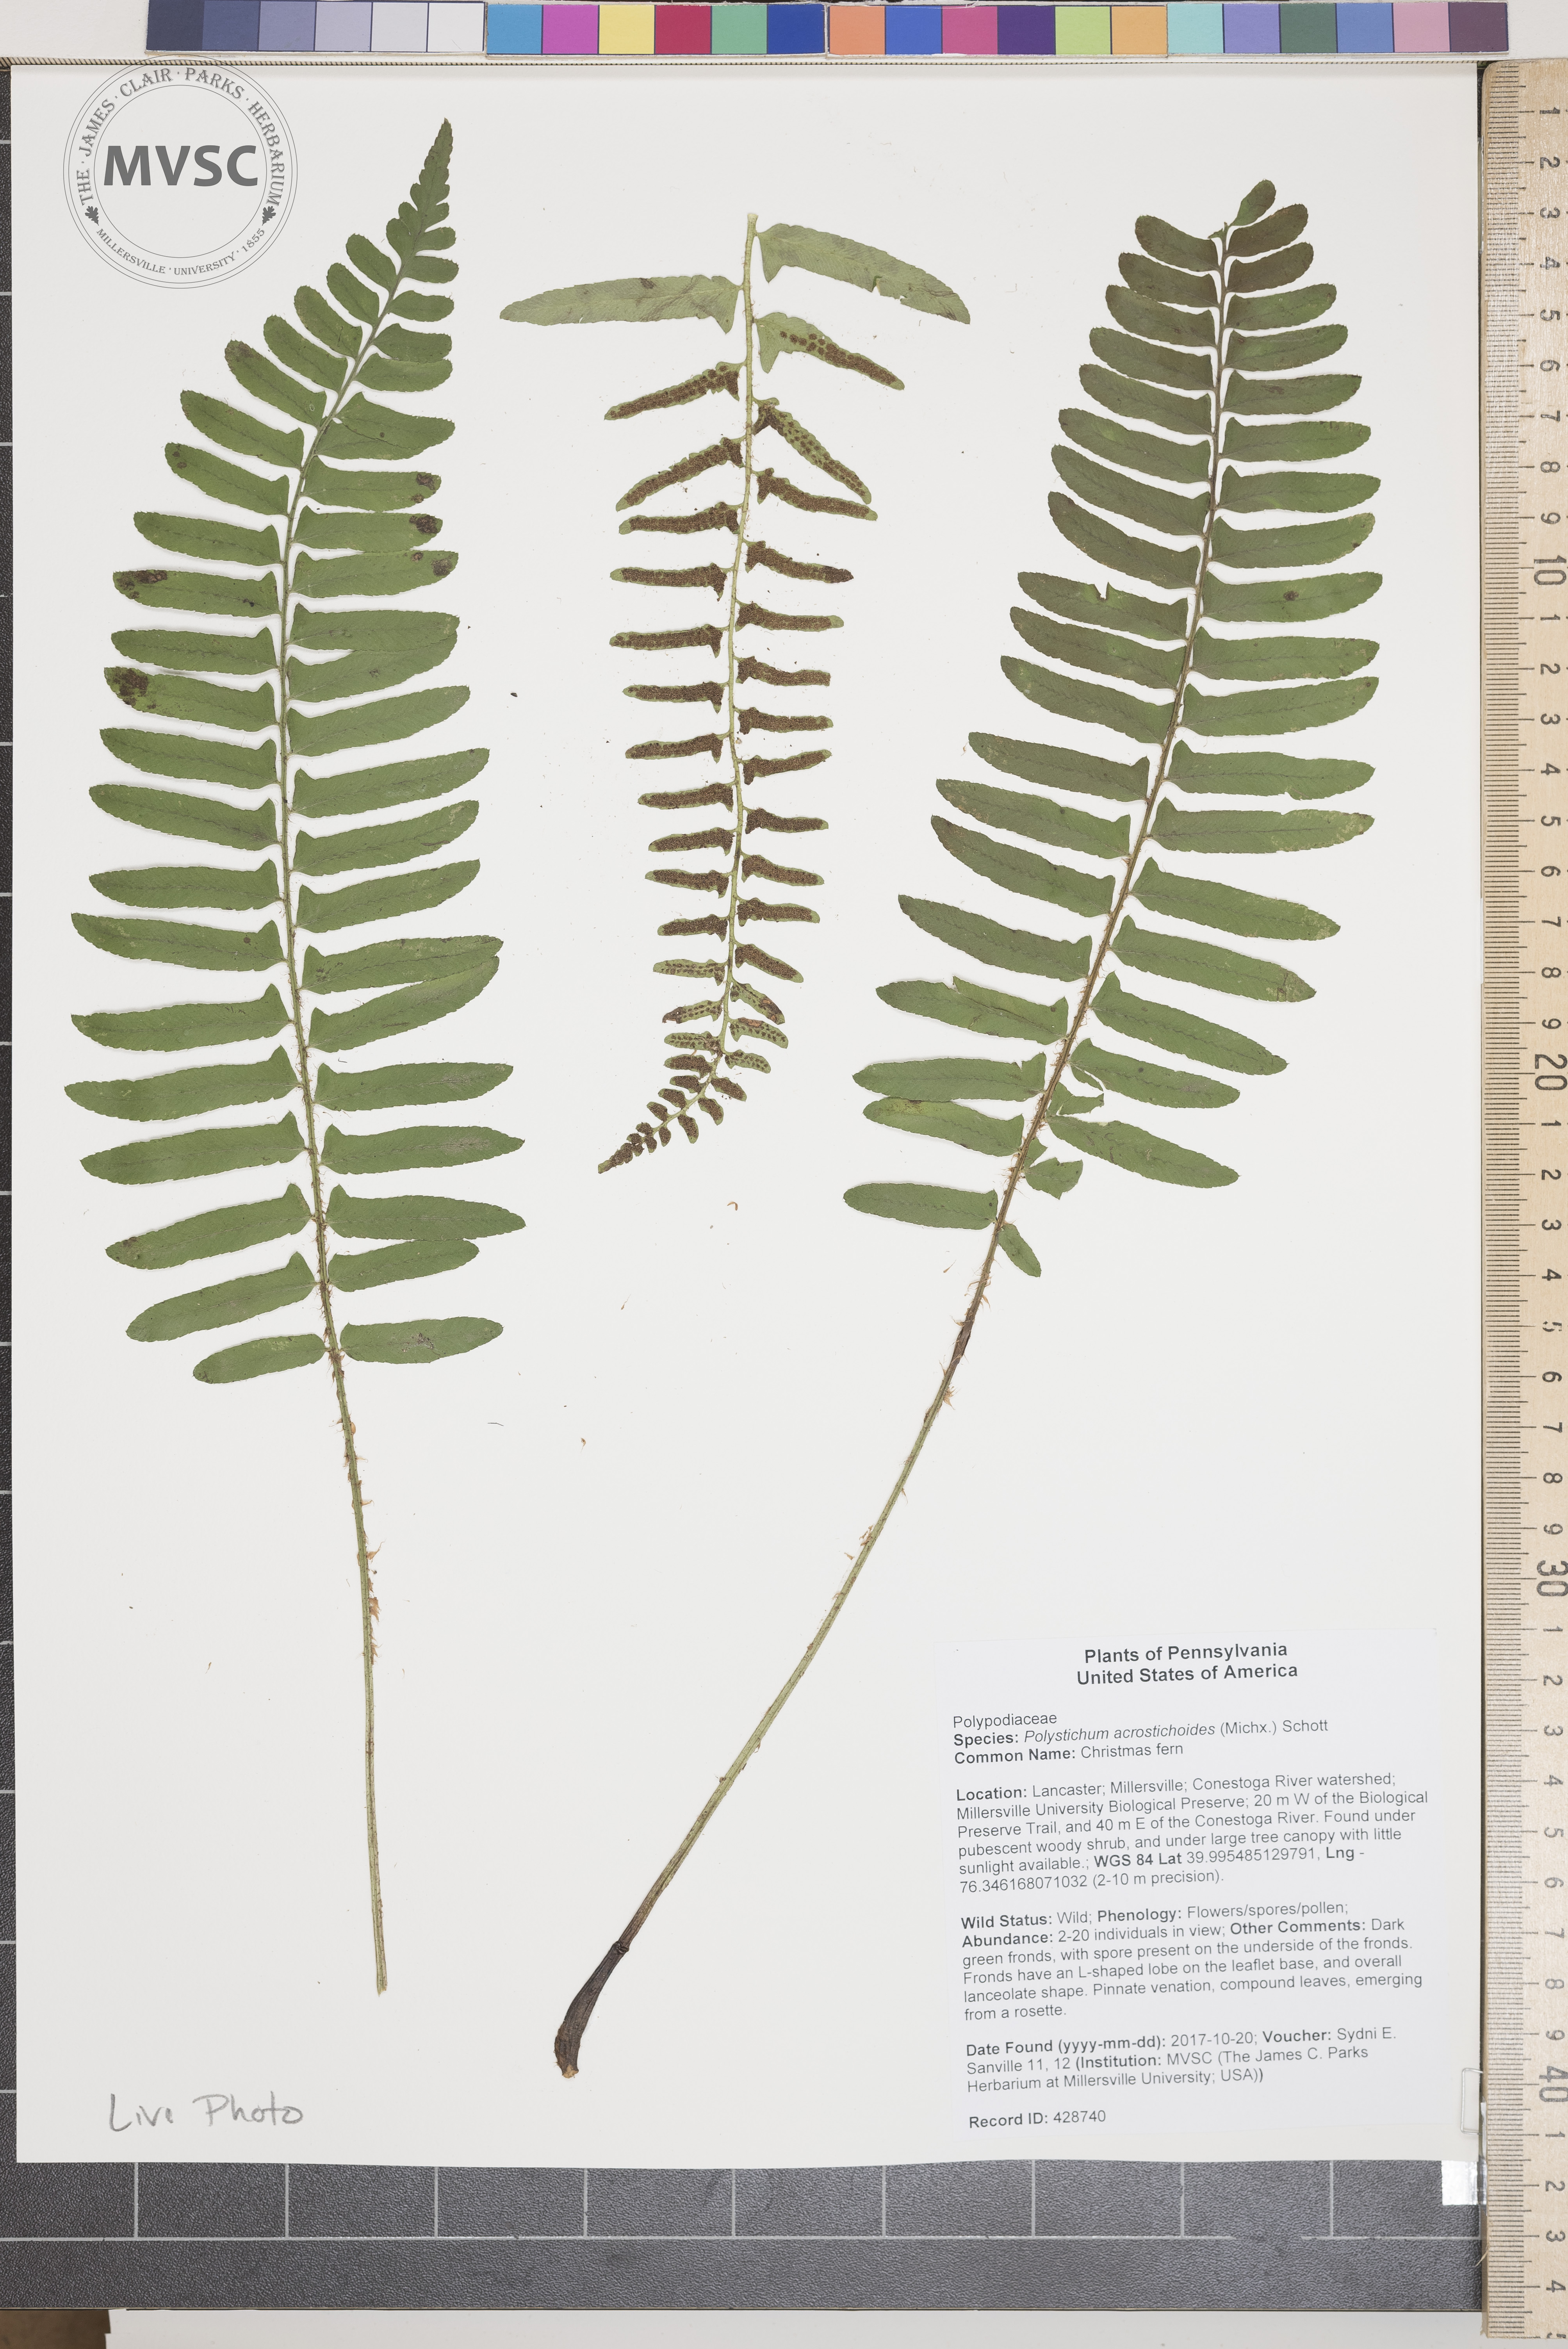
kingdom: Plantae
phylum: Tracheophyta
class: Polypodiopsida
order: Polypodiales
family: Dryopteridaceae
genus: Polystichum
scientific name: Polystichum acrostichoides
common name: Christmas fern
